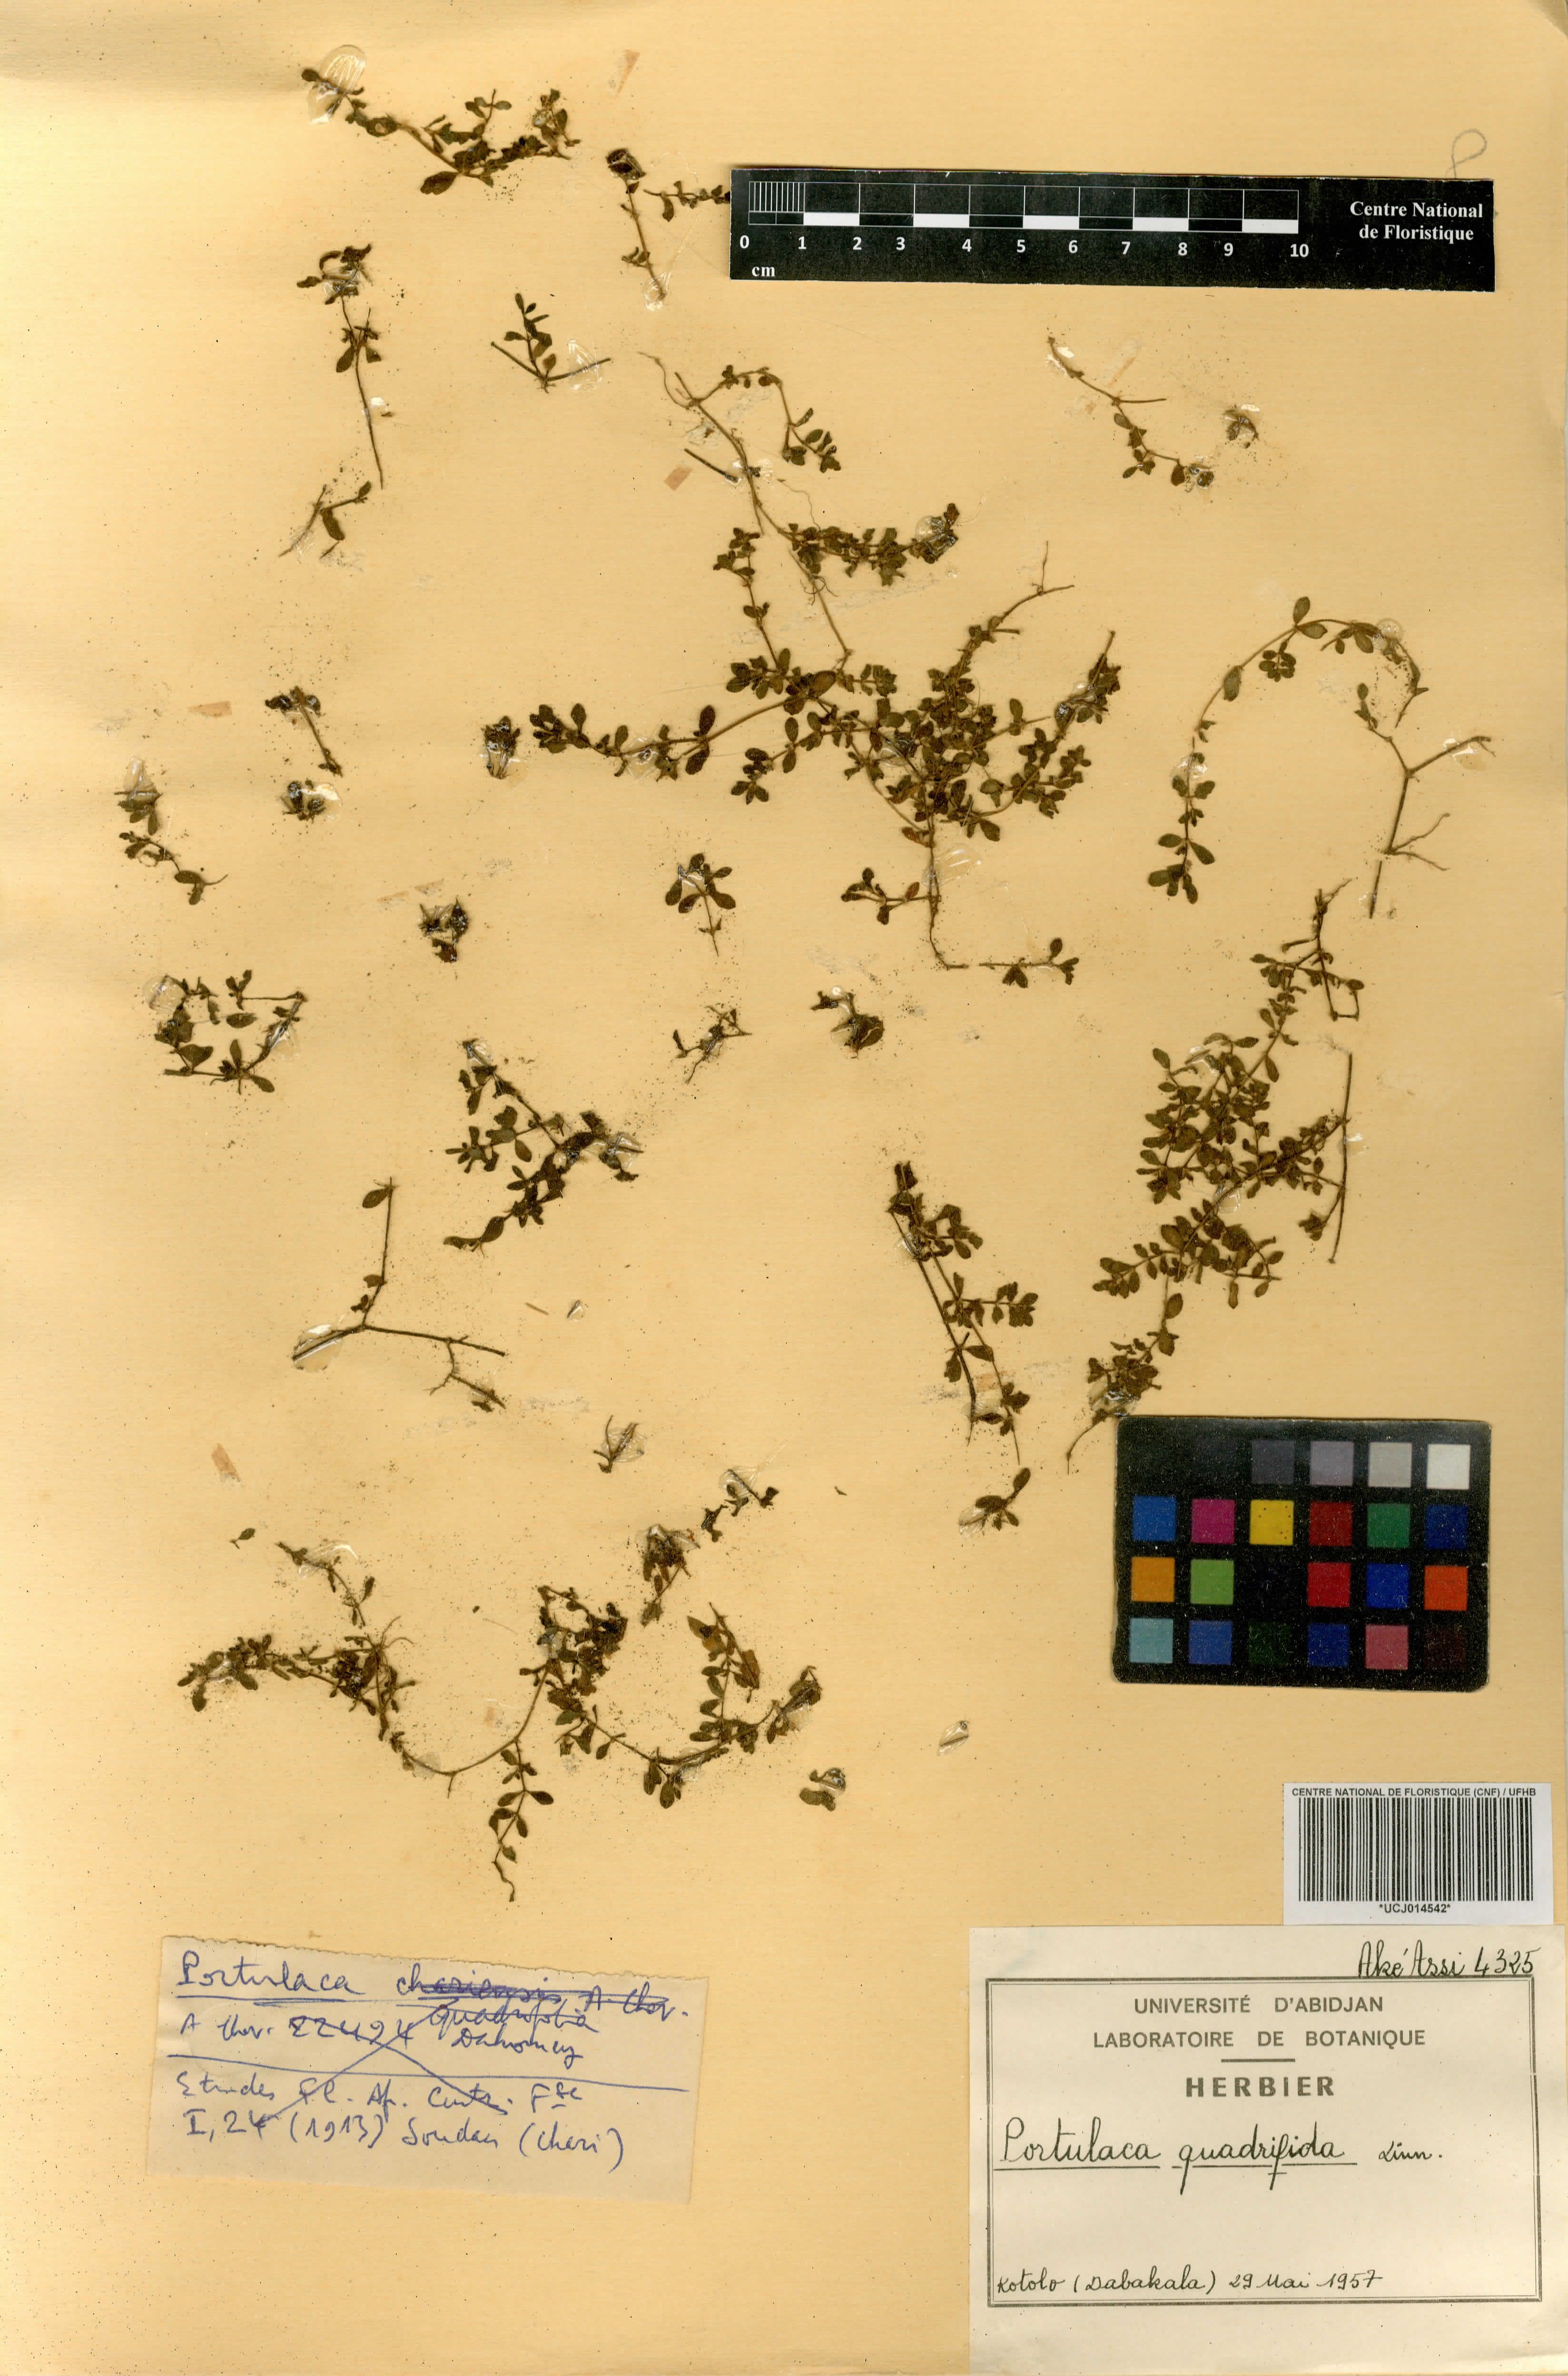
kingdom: Plantae
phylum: Tracheophyta
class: Magnoliopsida
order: Caryophyllales
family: Portulacaceae
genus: Portulaca
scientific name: Portulaca quadrifida
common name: Chickenweed
